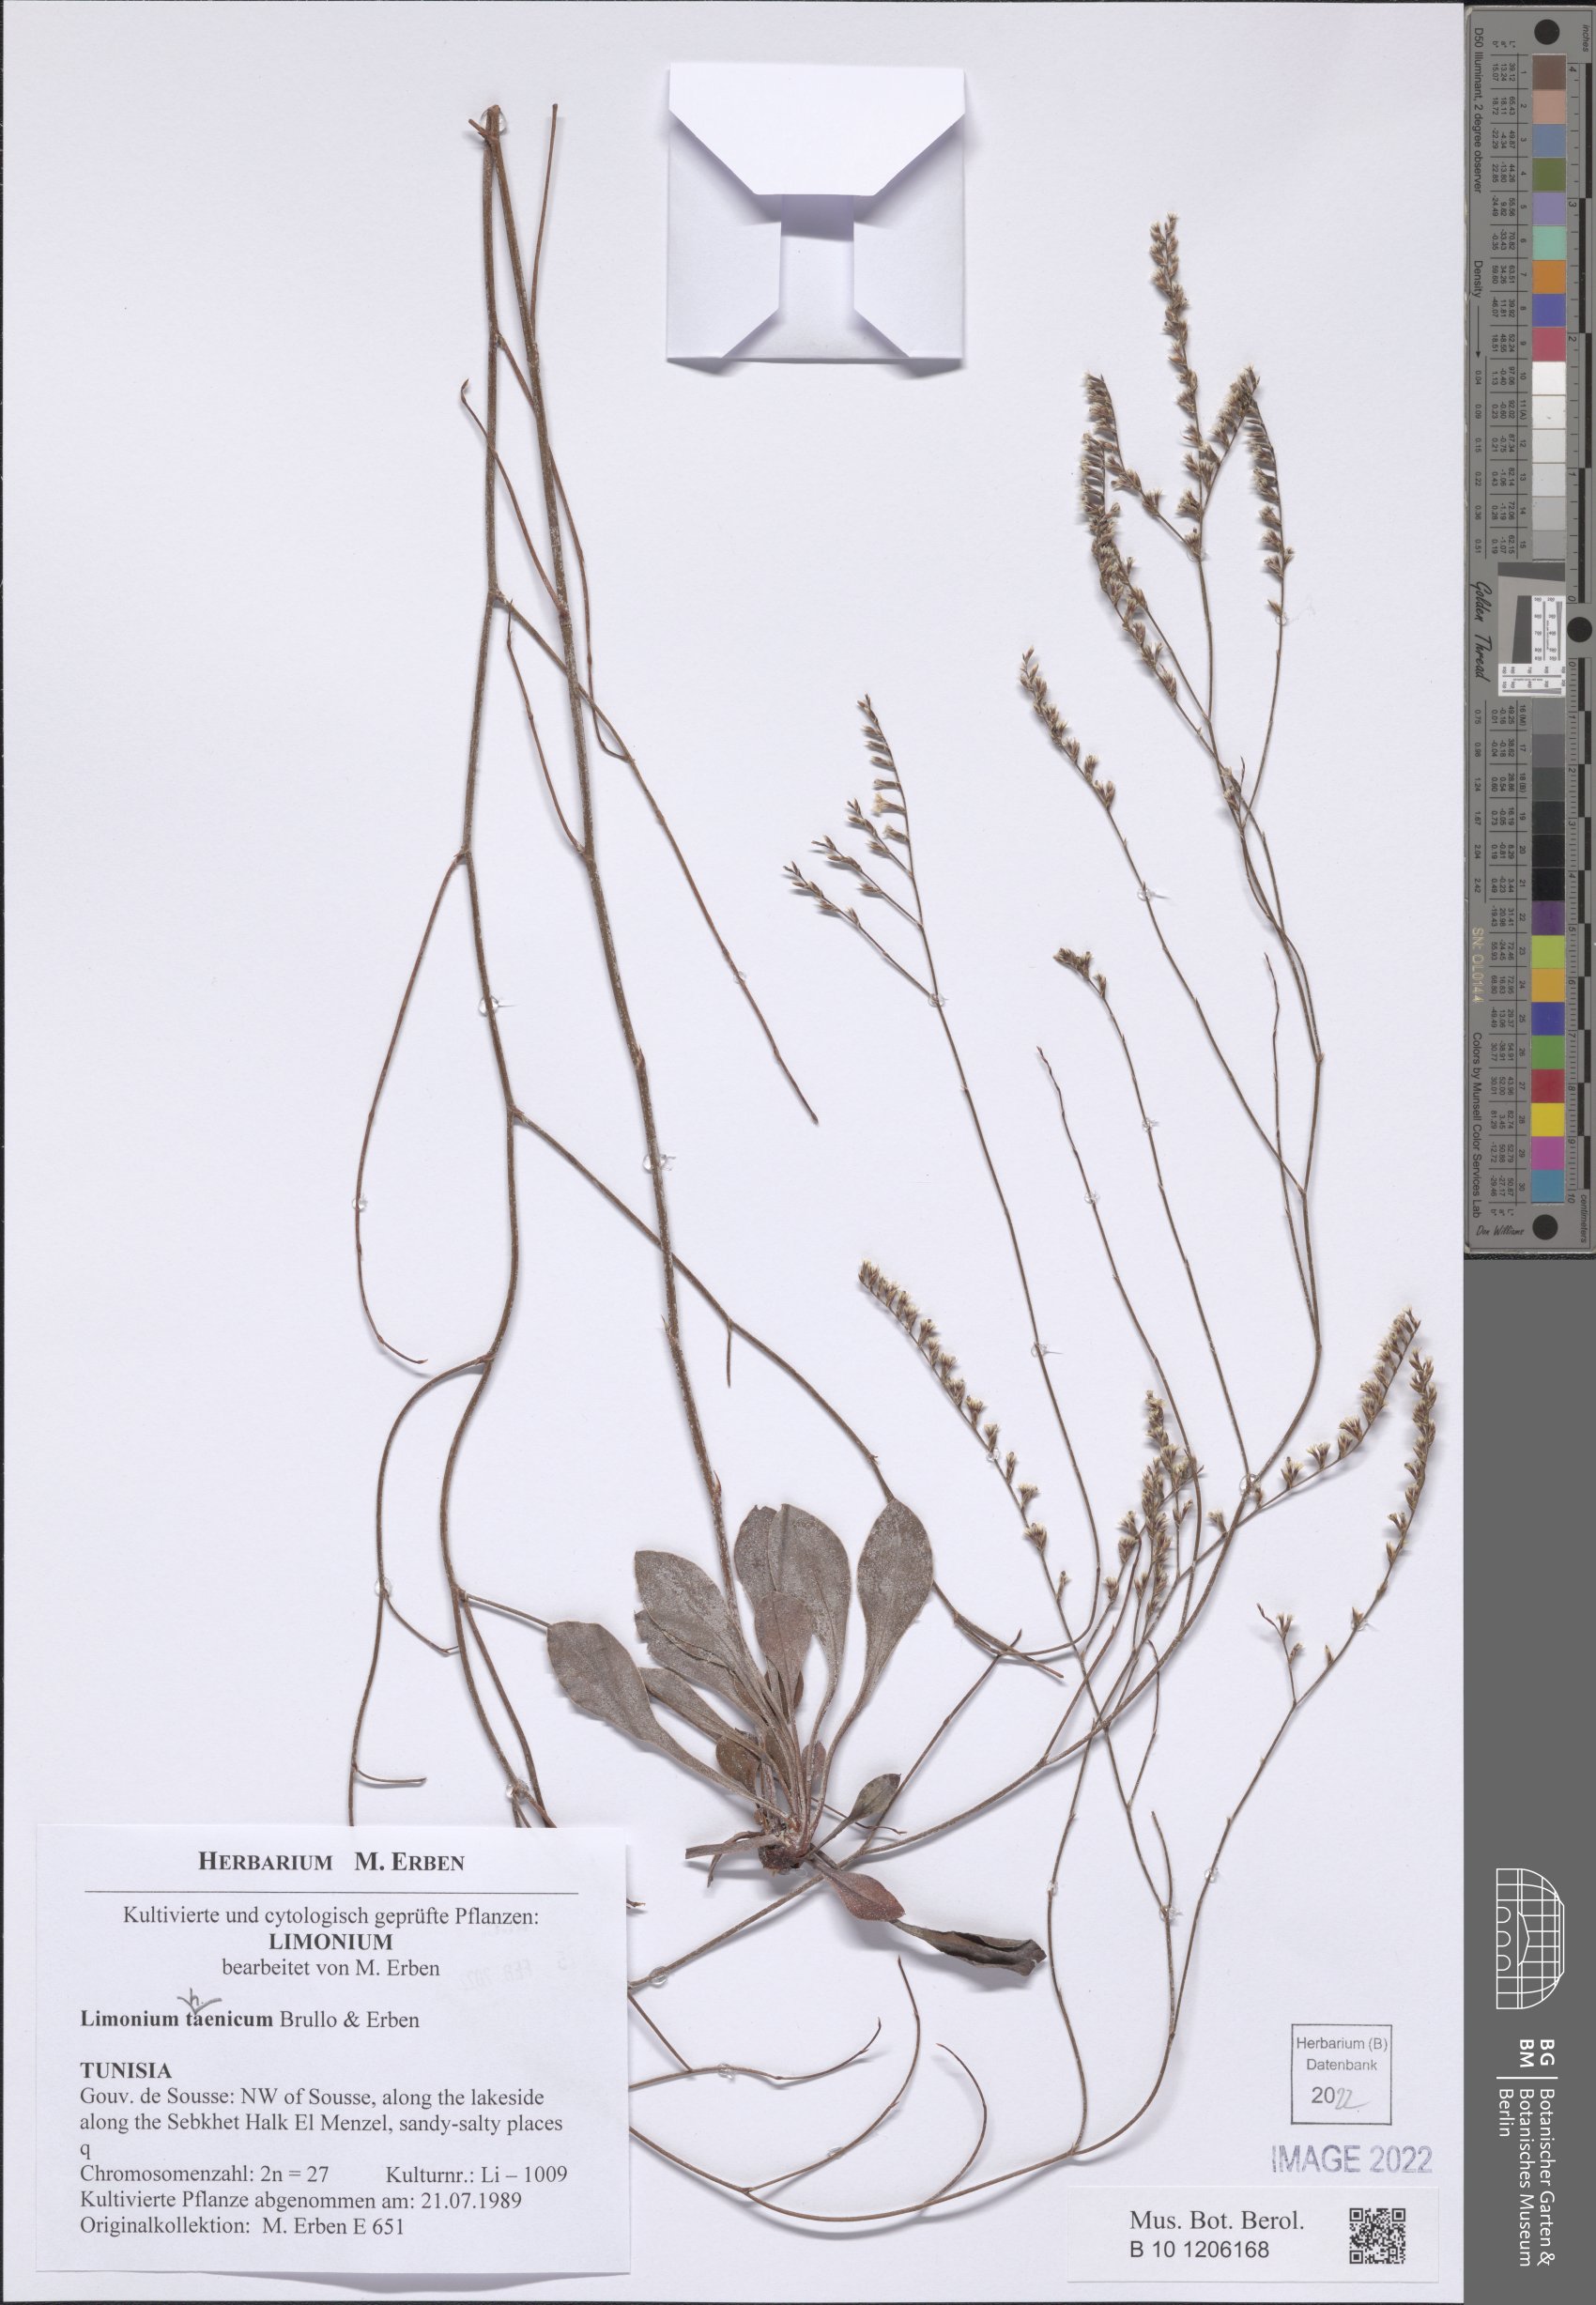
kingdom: Plantae
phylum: Tracheophyta
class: Magnoliopsida
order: Caryophyllales
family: Plumbaginaceae
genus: Limonium
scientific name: Limonium thaenicum
